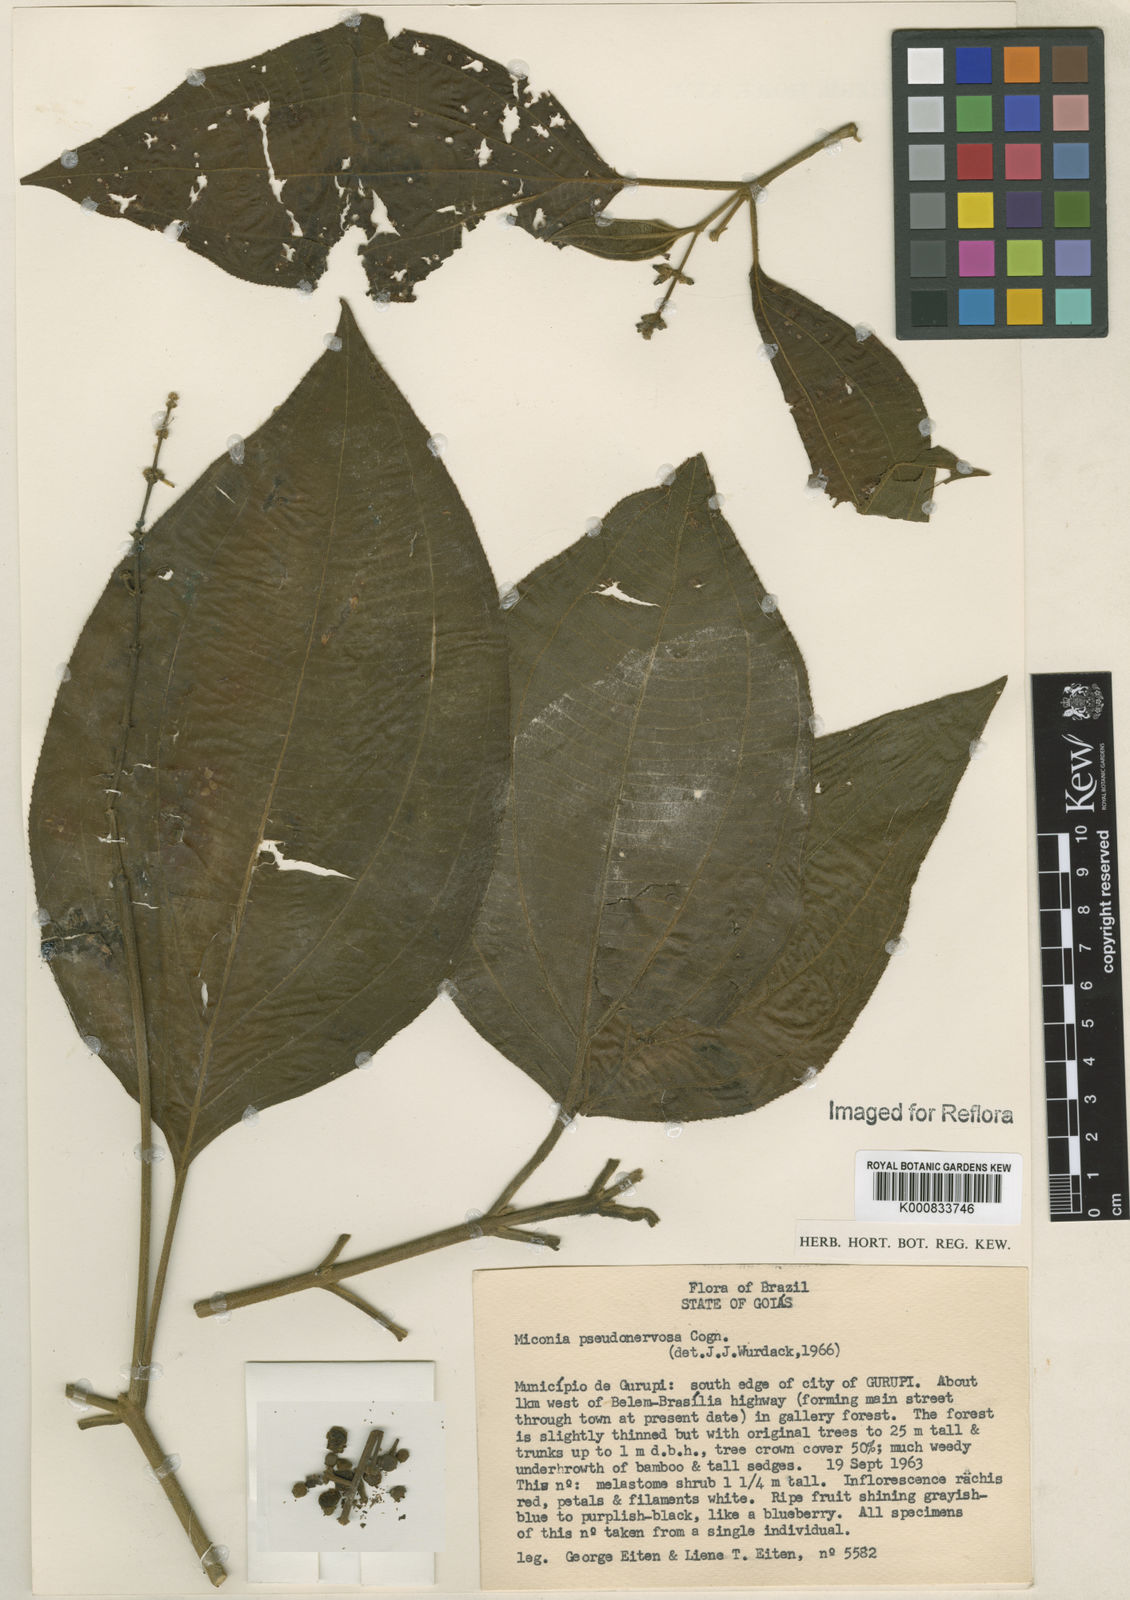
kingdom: Plantae
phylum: Tracheophyta
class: Magnoliopsida
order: Myrtales
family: Melastomataceae
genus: Miconia
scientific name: Miconia pseudonervosa
